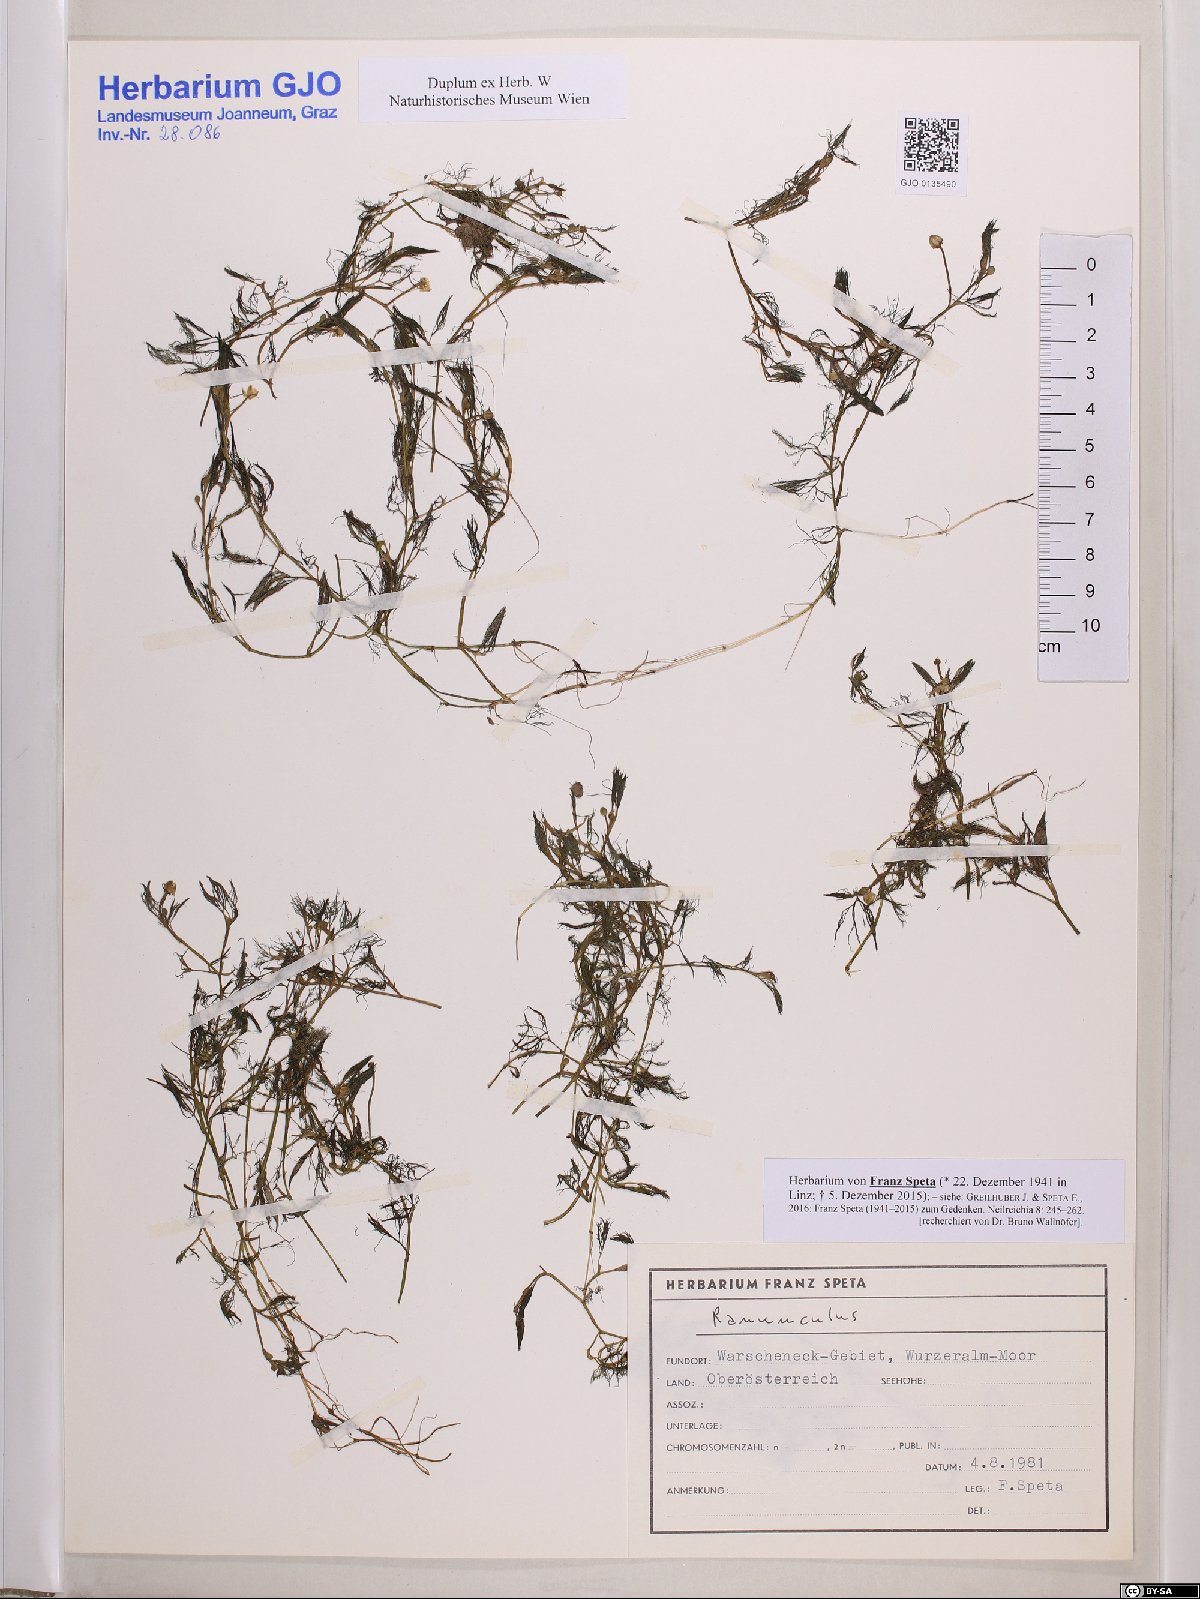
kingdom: Plantae
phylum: Tracheophyta
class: Magnoliopsida
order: Ranunculales
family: Ranunculaceae
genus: Ranunculus
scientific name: Ranunculus
